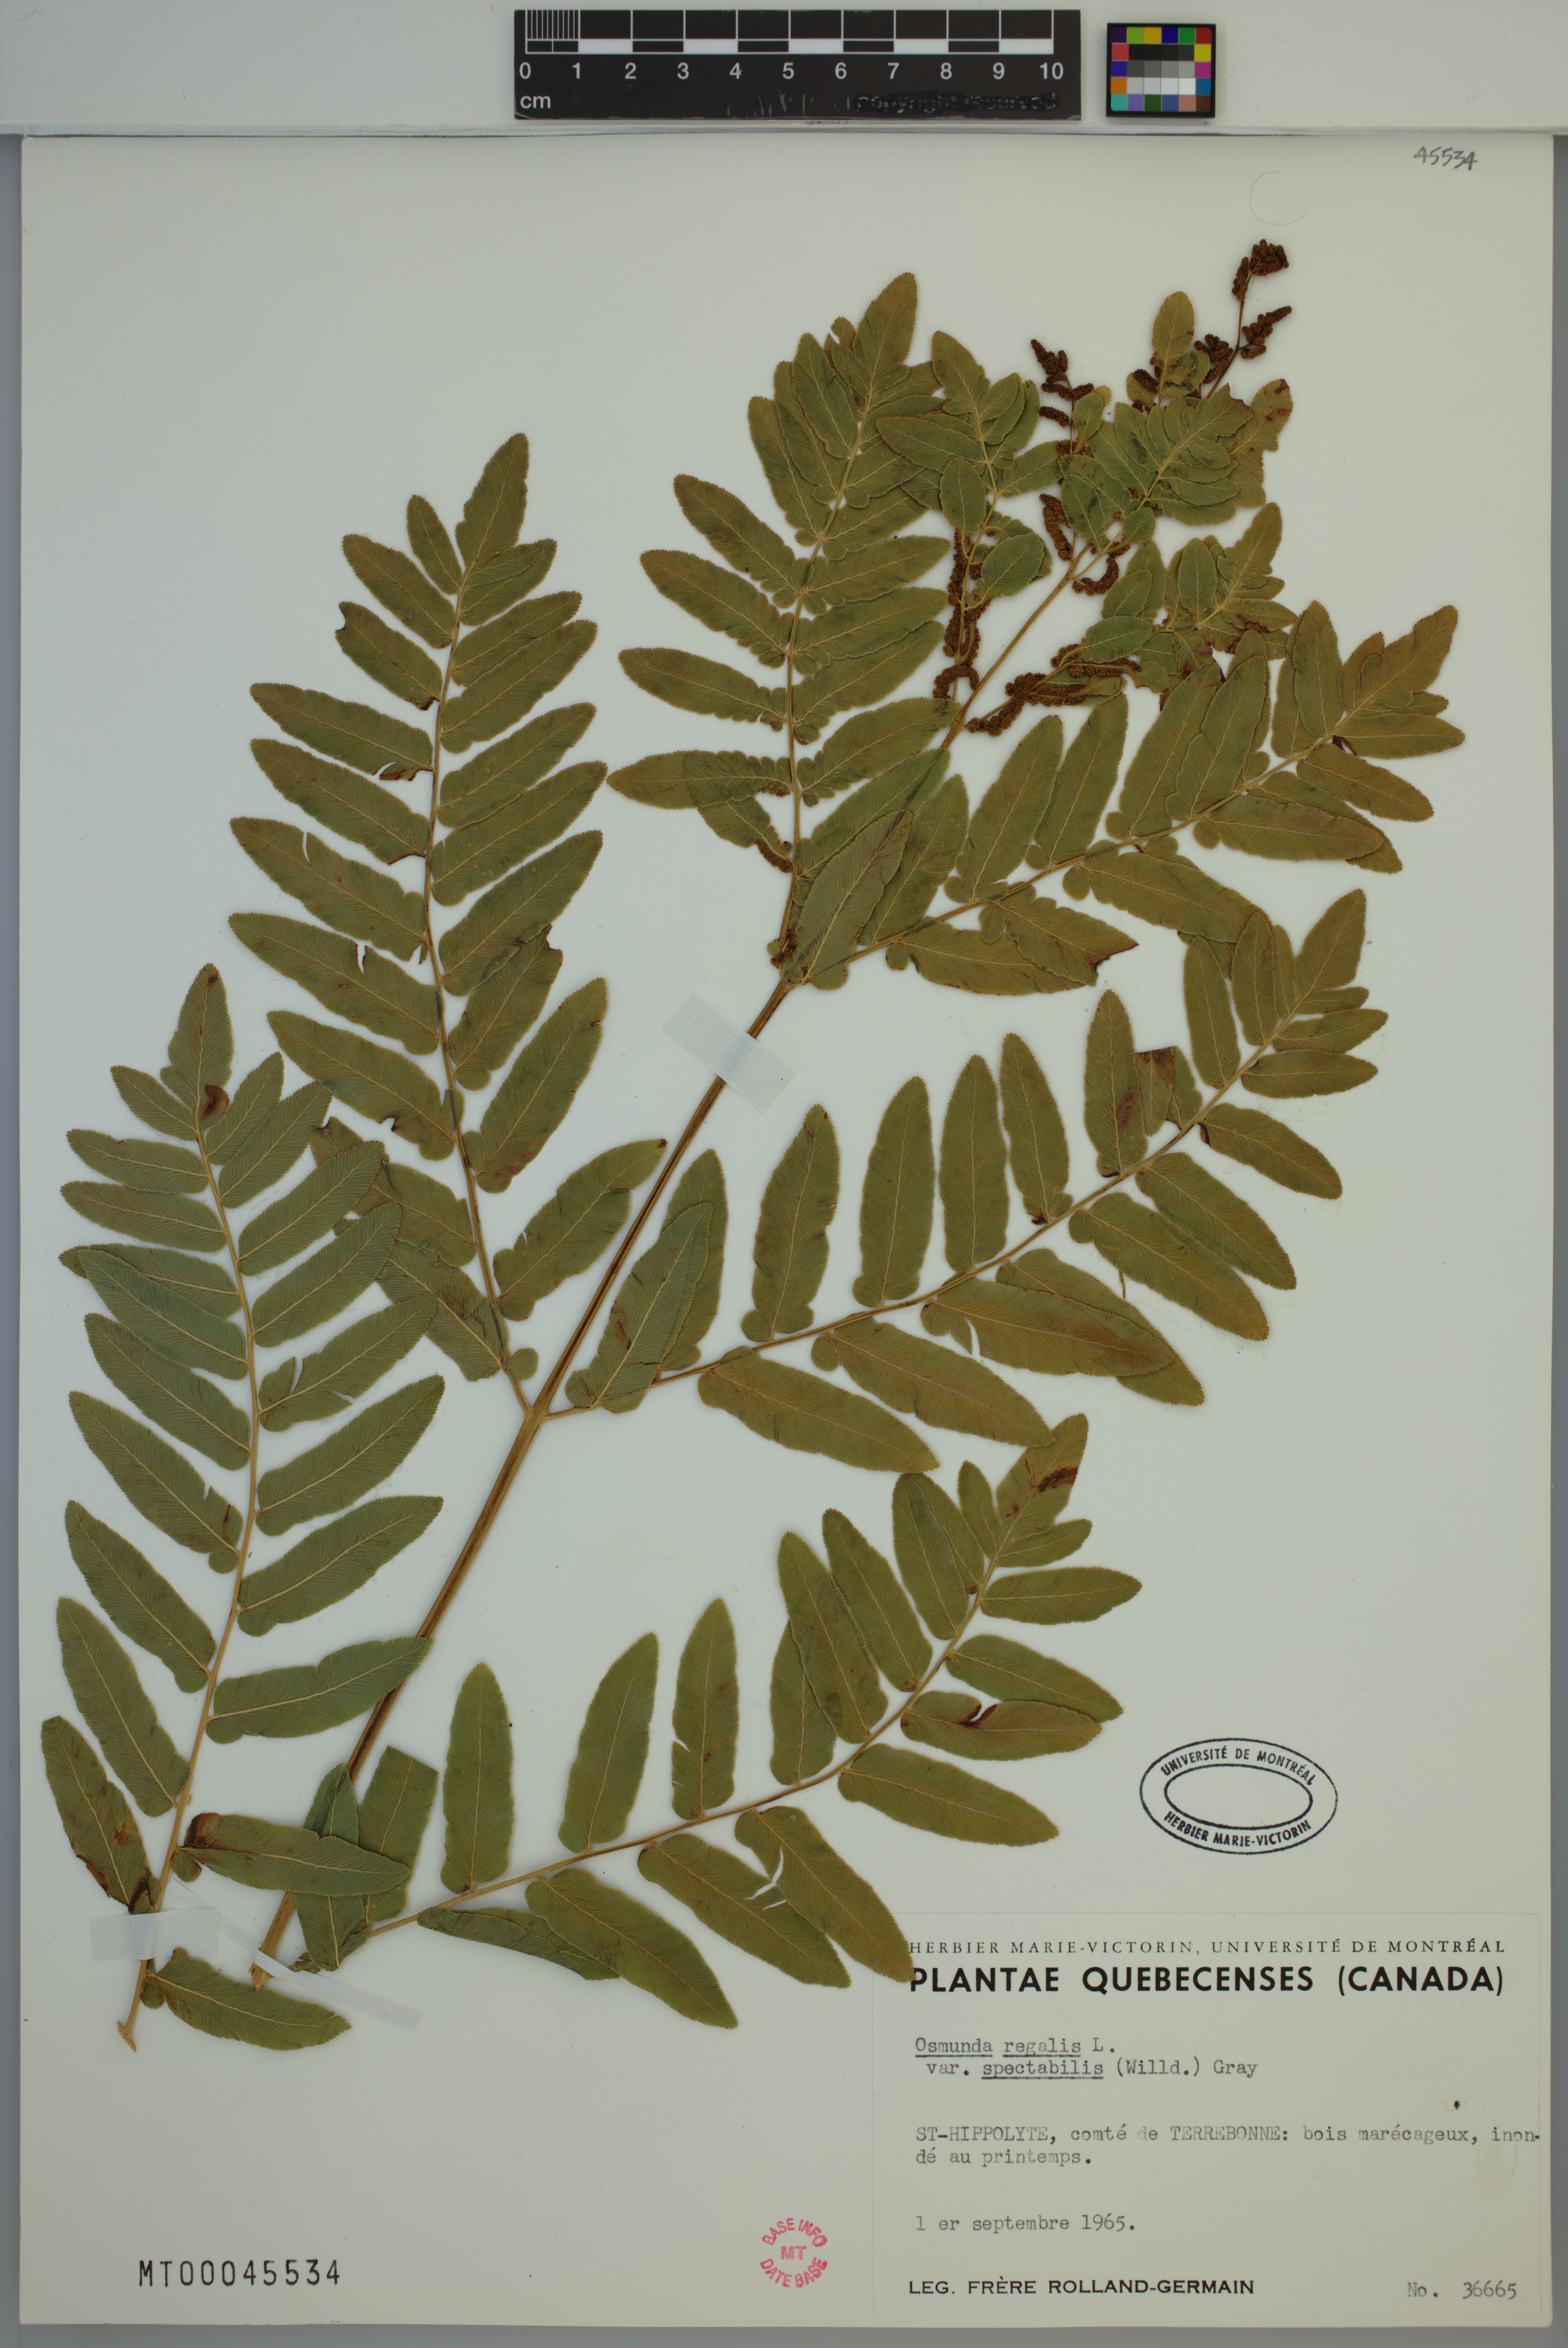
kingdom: Plantae
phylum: Tracheophyta
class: Polypodiopsida
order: Osmundales
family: Osmundaceae
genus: Osmunda
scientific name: Osmunda spectabilis
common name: American royal fern
